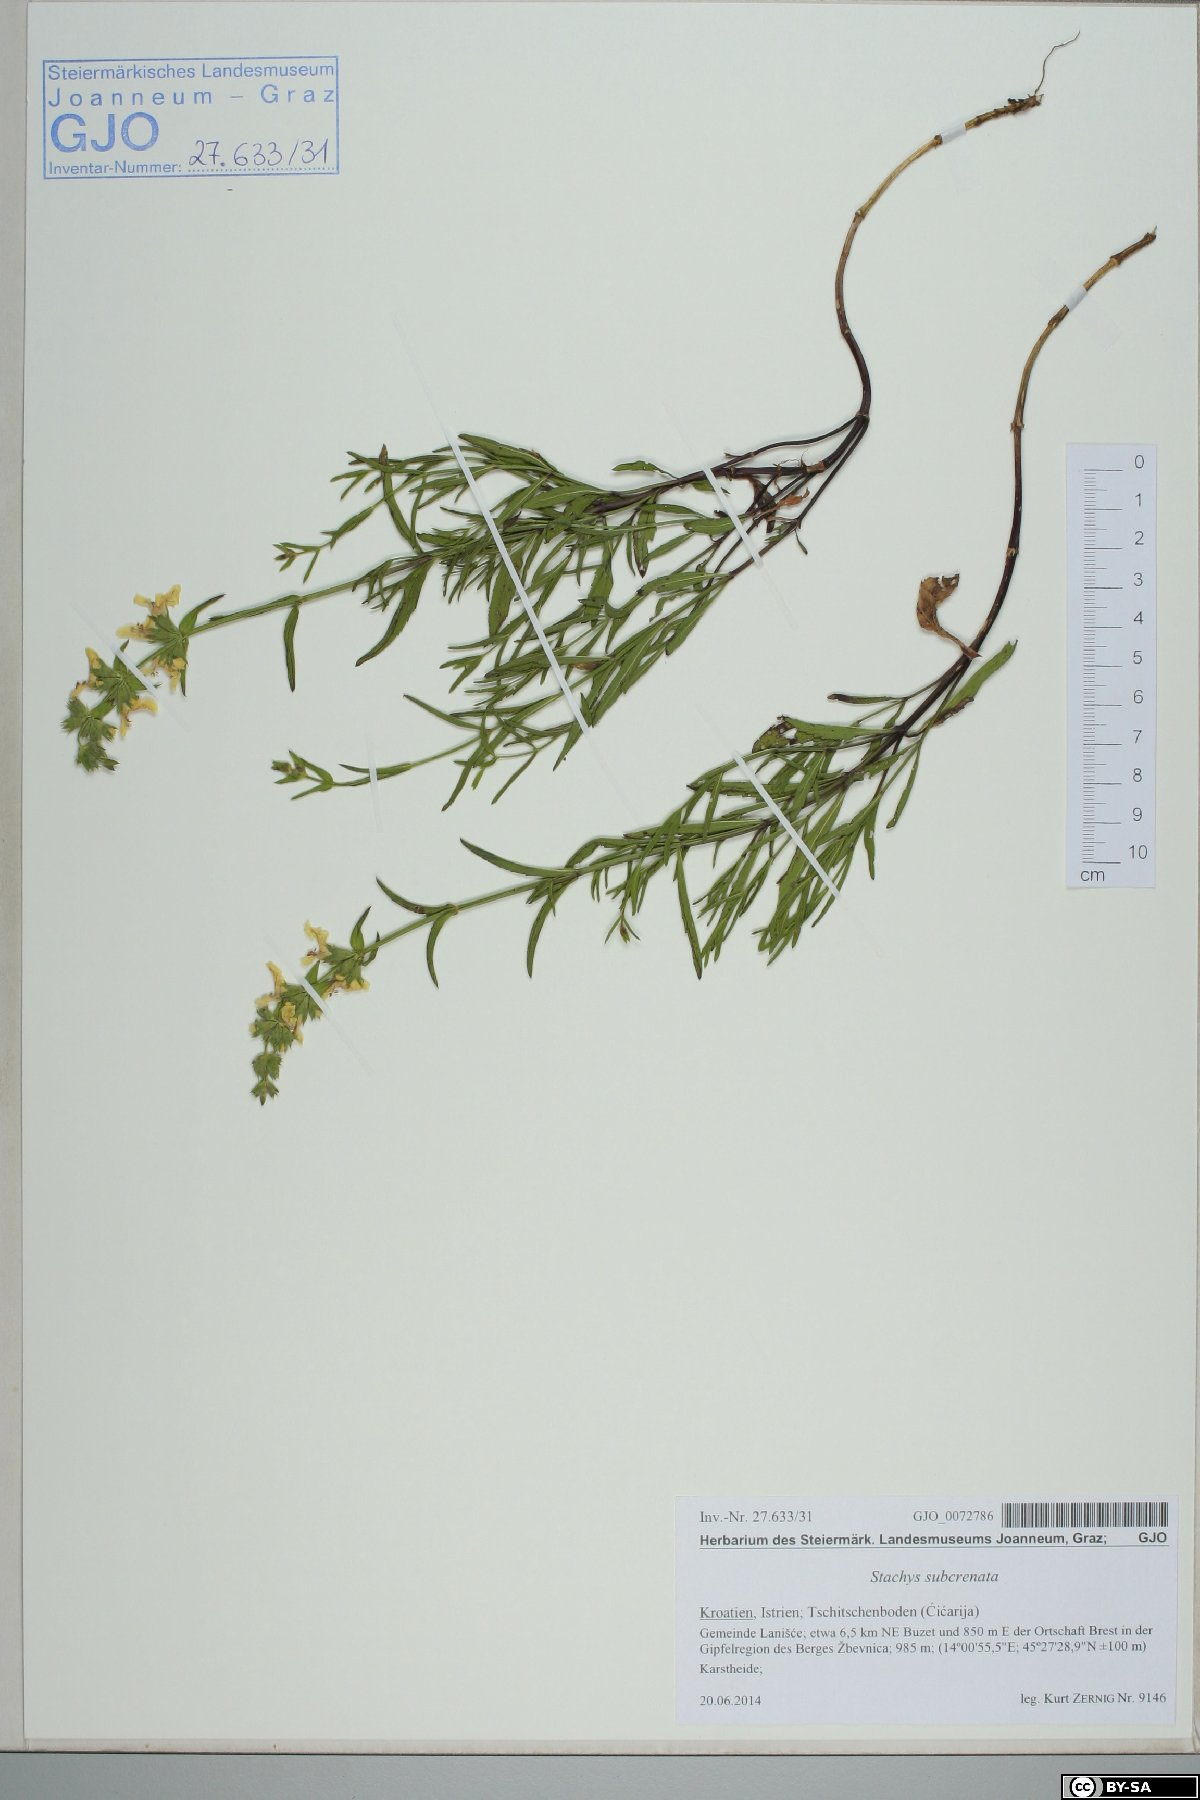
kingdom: Plantae
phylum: Tracheophyta
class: Magnoliopsida
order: Lamiales
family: Lamiaceae
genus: Stachys
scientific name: Stachys recta
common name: Perennial yellow-woundwort
